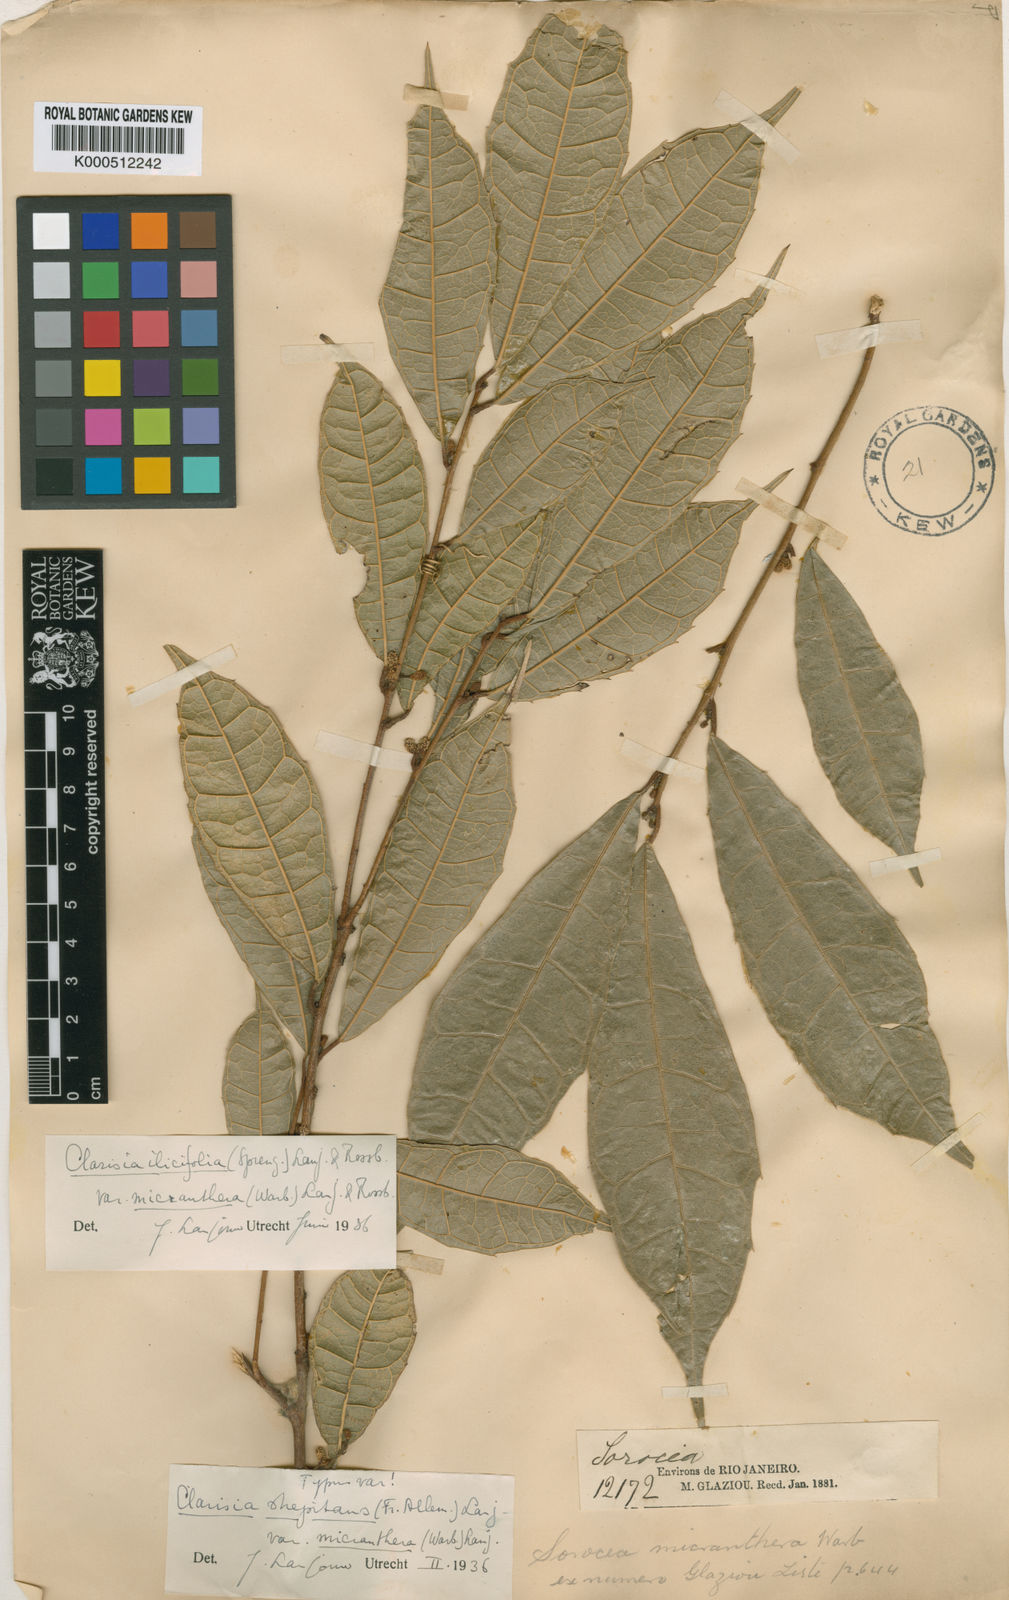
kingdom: Plantae
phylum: Tracheophyta
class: Magnoliopsida
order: Rosales
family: Moraceae
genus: Clarisia
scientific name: Clarisia ilicifolia
